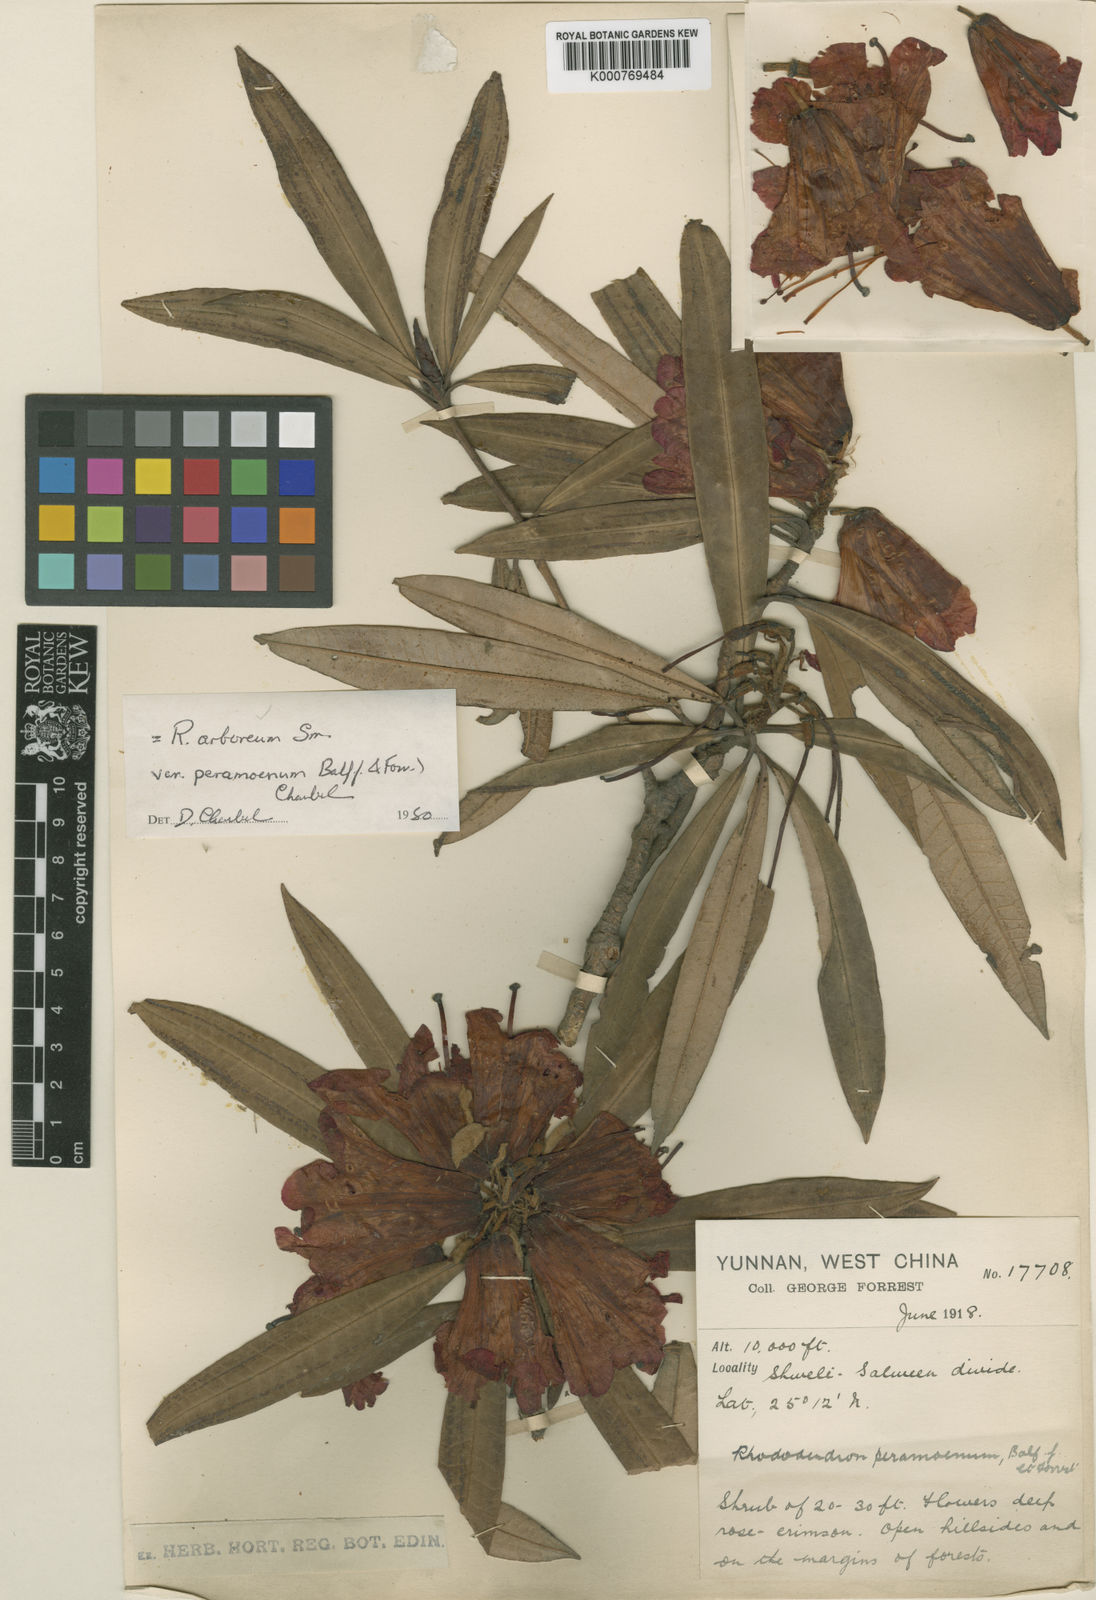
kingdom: Plantae
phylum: Tracheophyta
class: Magnoliopsida
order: Ericales
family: Ericaceae
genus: Rhododendron
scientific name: Rhododendron arboreum
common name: Tree rhododendron
